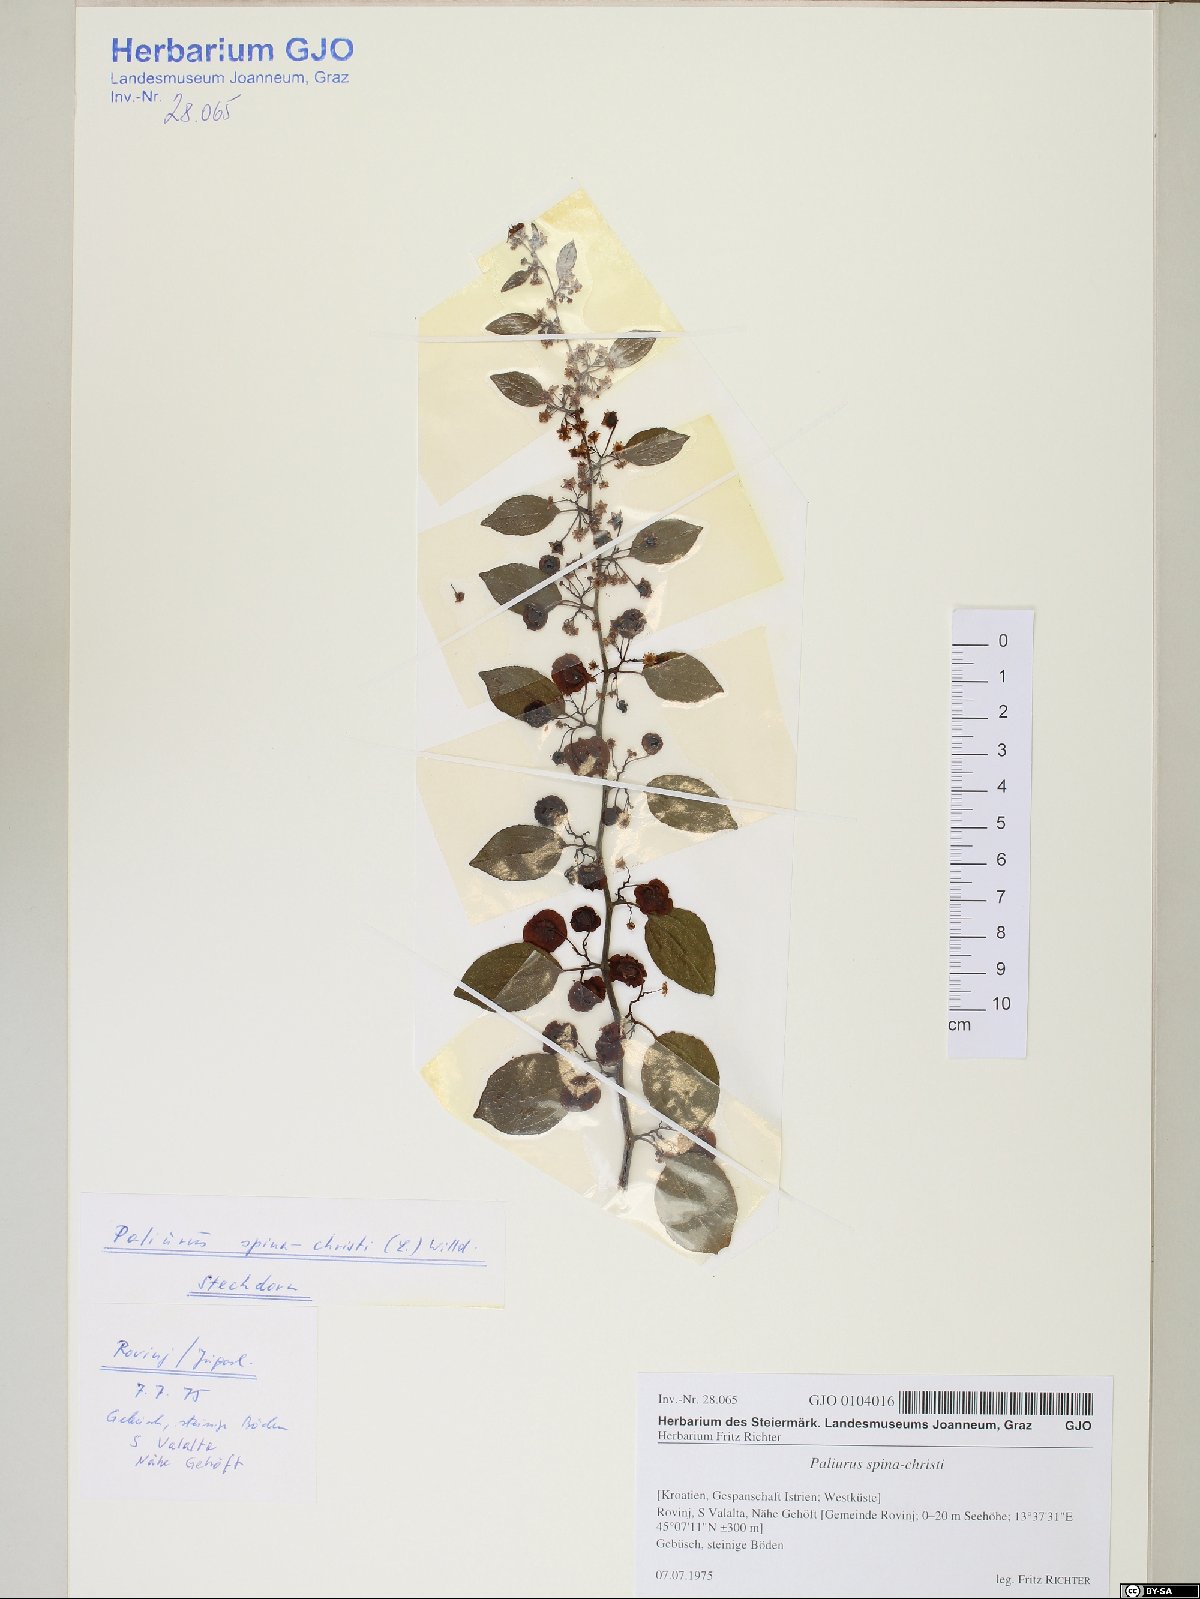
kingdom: Plantae
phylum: Tracheophyta
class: Magnoliopsida
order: Rosales
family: Rhamnaceae
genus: Paliurus
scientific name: Paliurus spina-christi
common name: Jeruselem thorn
